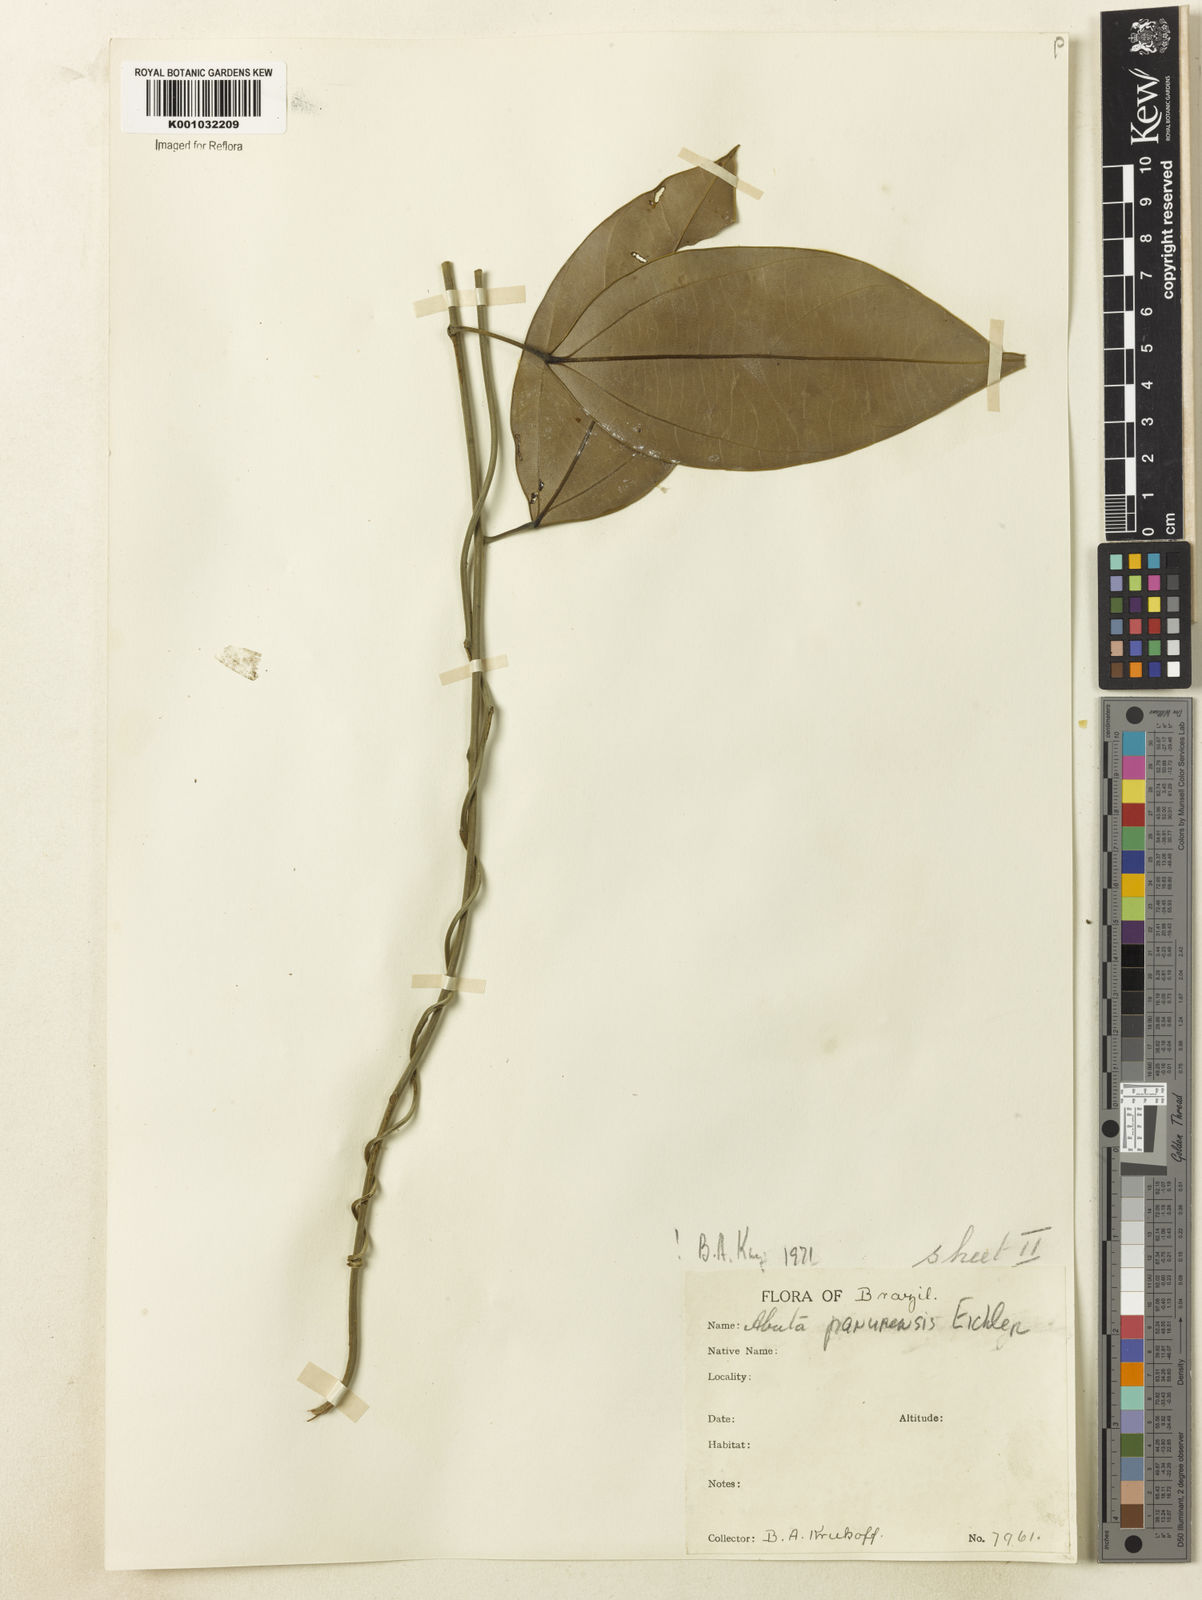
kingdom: Plantae
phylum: Tracheophyta
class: Magnoliopsida
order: Ranunculales
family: Menispermaceae
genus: Abuta
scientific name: Abuta panurensis
